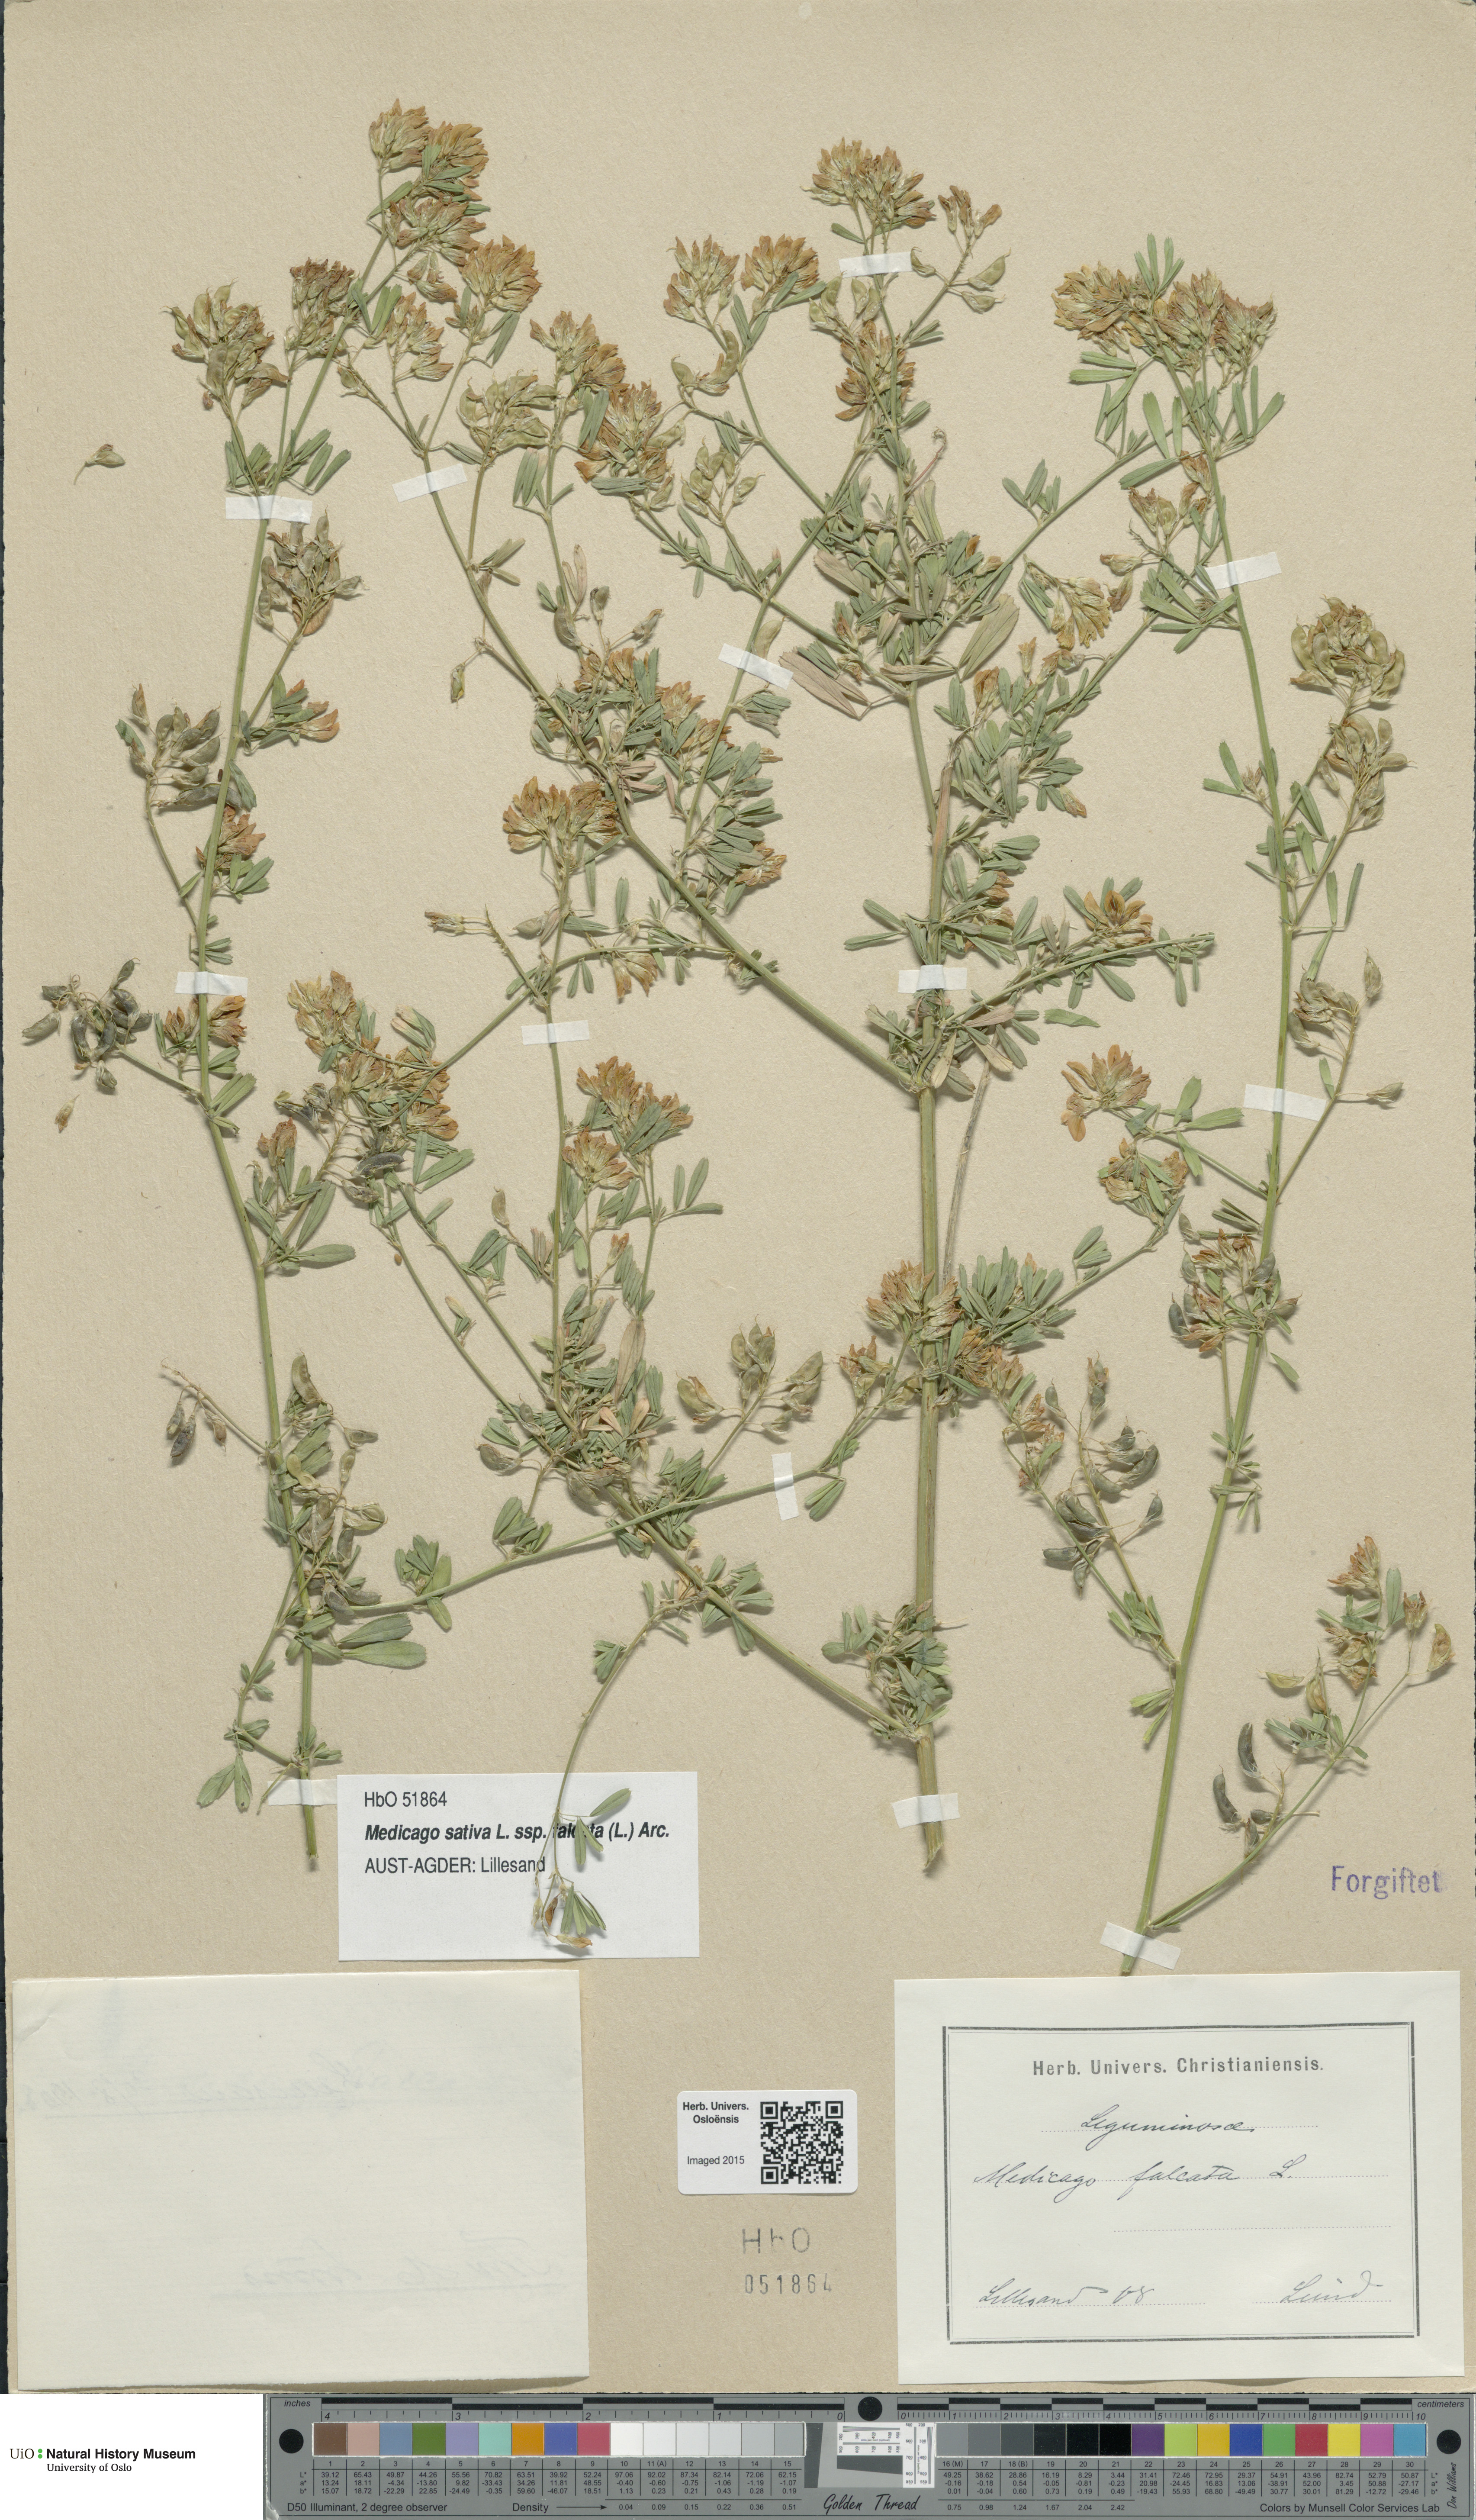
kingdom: Plantae
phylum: Tracheophyta
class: Magnoliopsida
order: Fabales
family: Fabaceae
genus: Medicago
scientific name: Medicago falcata
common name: Sickle medick
